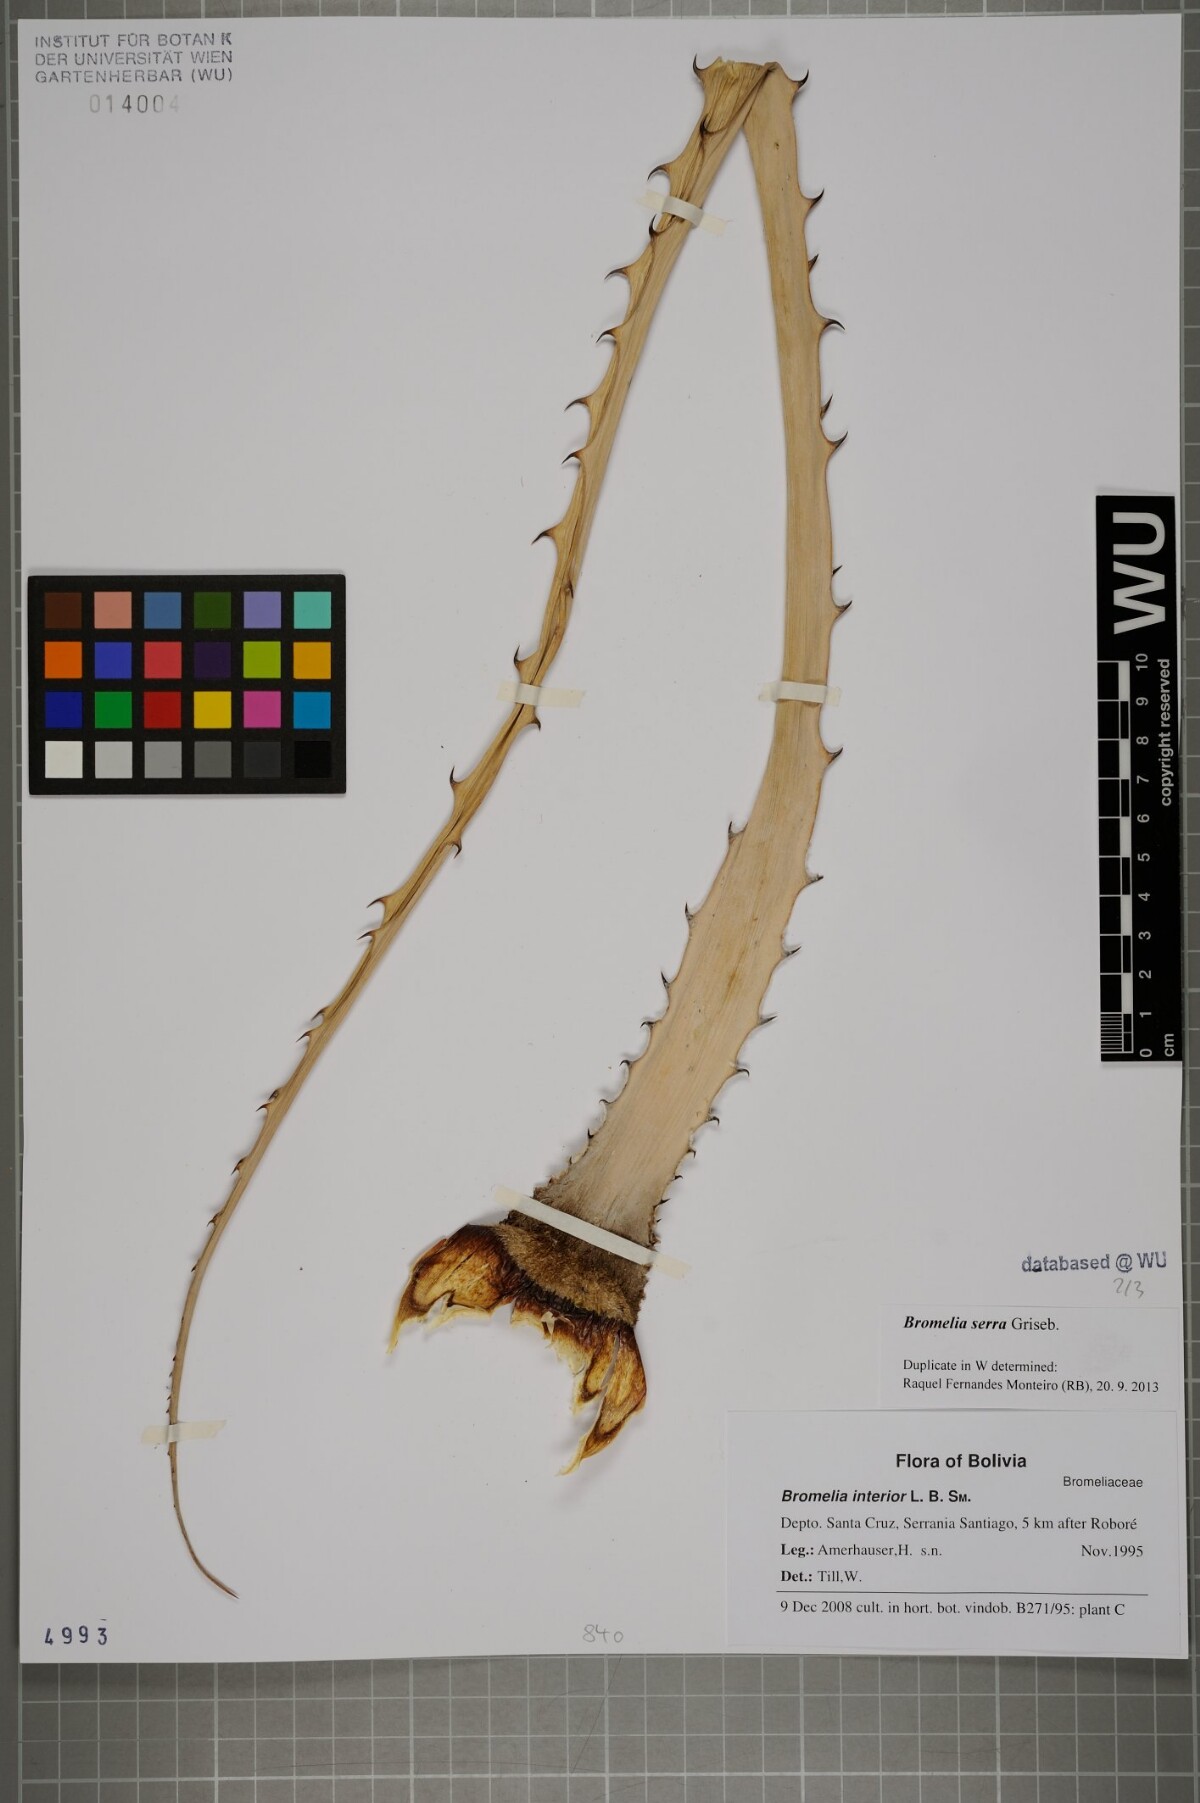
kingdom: Plantae
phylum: Tracheophyta
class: Liliopsida
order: Poales
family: Bromeliaceae
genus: Bromelia
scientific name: Bromelia serra
